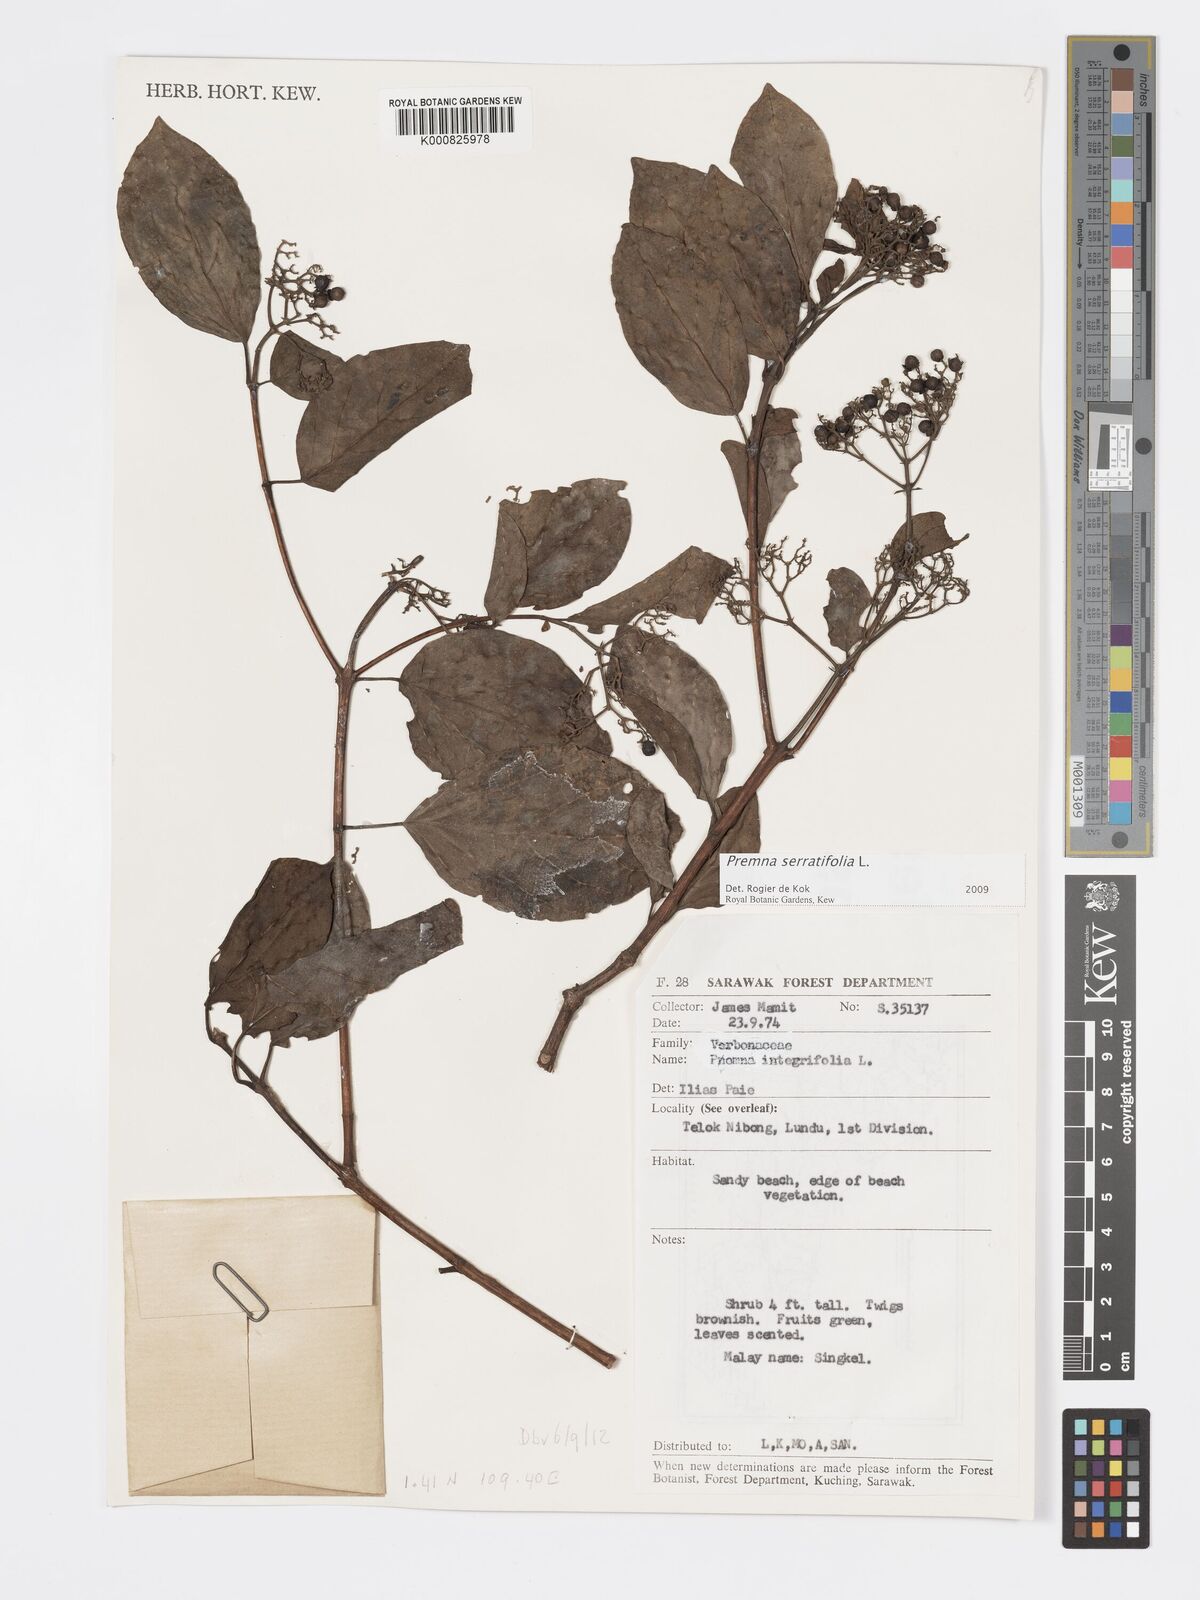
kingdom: Plantae
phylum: Tracheophyta
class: Magnoliopsida
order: Lamiales
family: Lamiaceae
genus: Premna
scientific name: Premna serratifolia
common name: Bastard guelder
